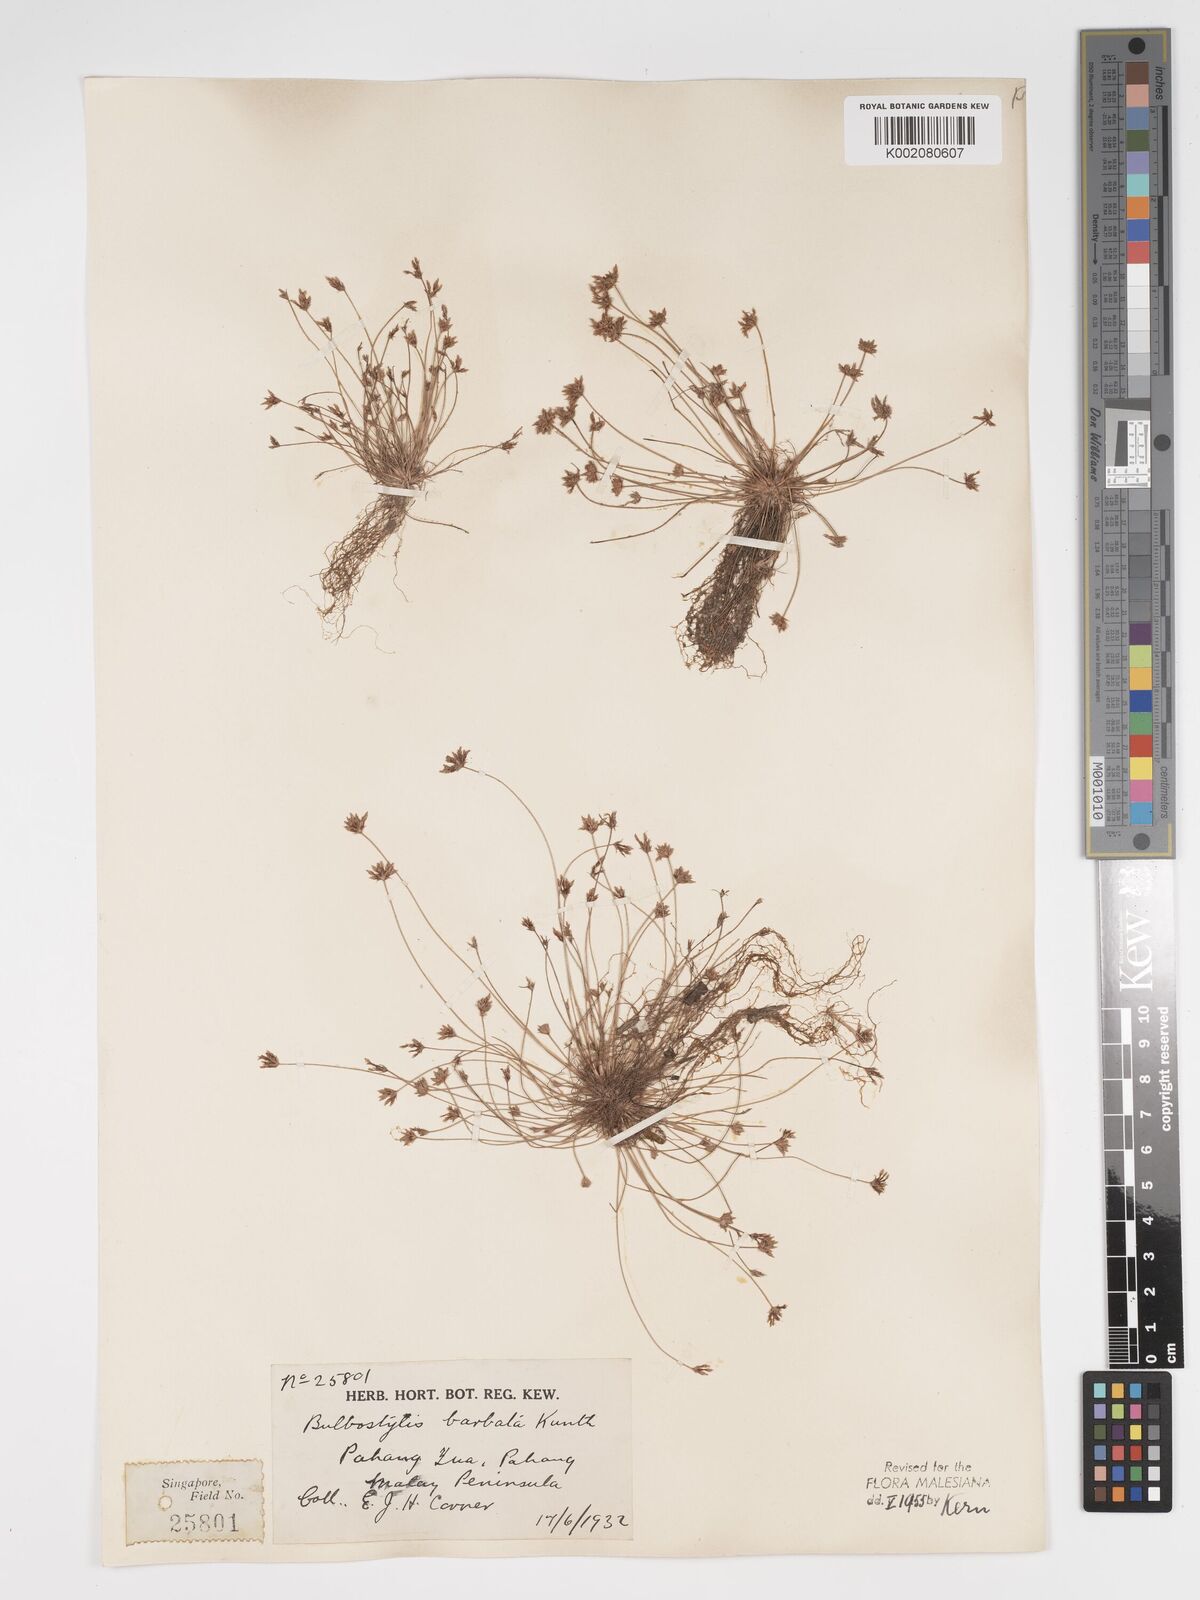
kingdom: Plantae
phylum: Tracheophyta
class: Liliopsida
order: Poales
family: Cyperaceae
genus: Bulbostylis
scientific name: Bulbostylis barbata
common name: Watergrass
